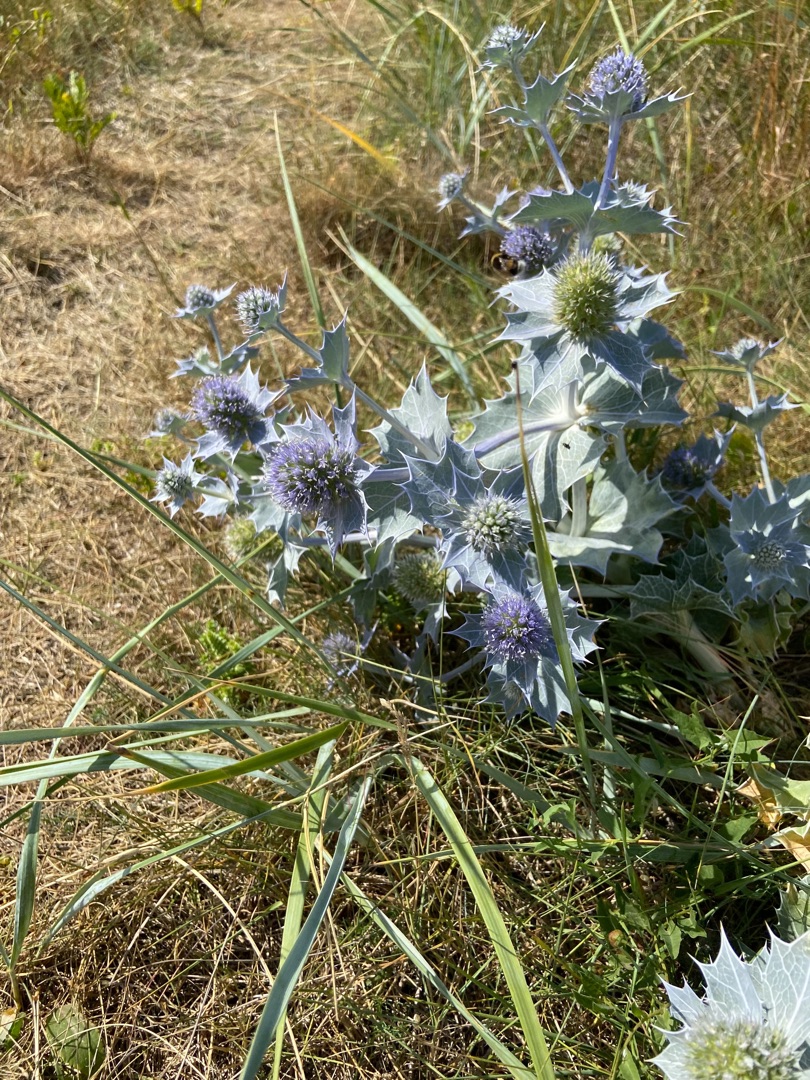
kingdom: Plantae
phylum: Tracheophyta
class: Magnoliopsida
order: Apiales
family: Apiaceae
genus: Eryngium
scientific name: Eryngium maritimum
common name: Strand-mandstro
